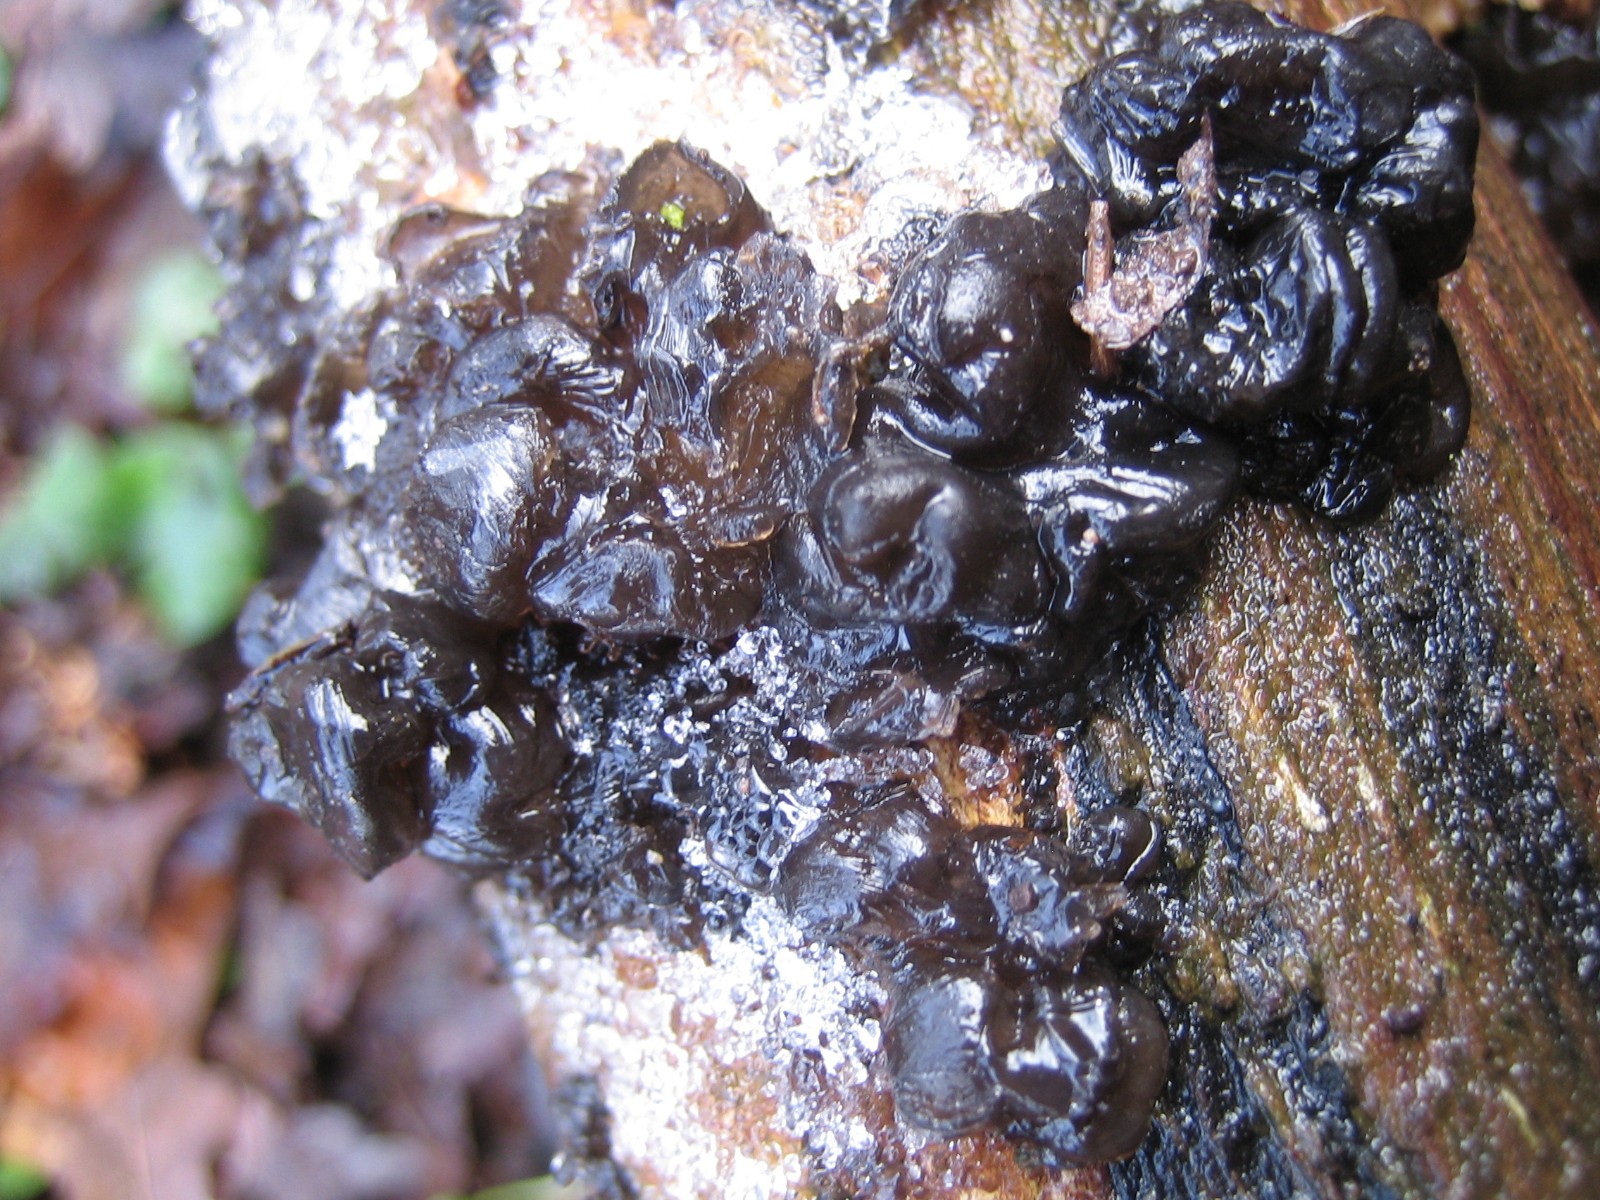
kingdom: Fungi
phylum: Basidiomycota
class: Agaricomycetes
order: Auriculariales
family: Auriculariaceae
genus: Exidia
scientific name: Exidia glandulosa
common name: ege-bævretop
